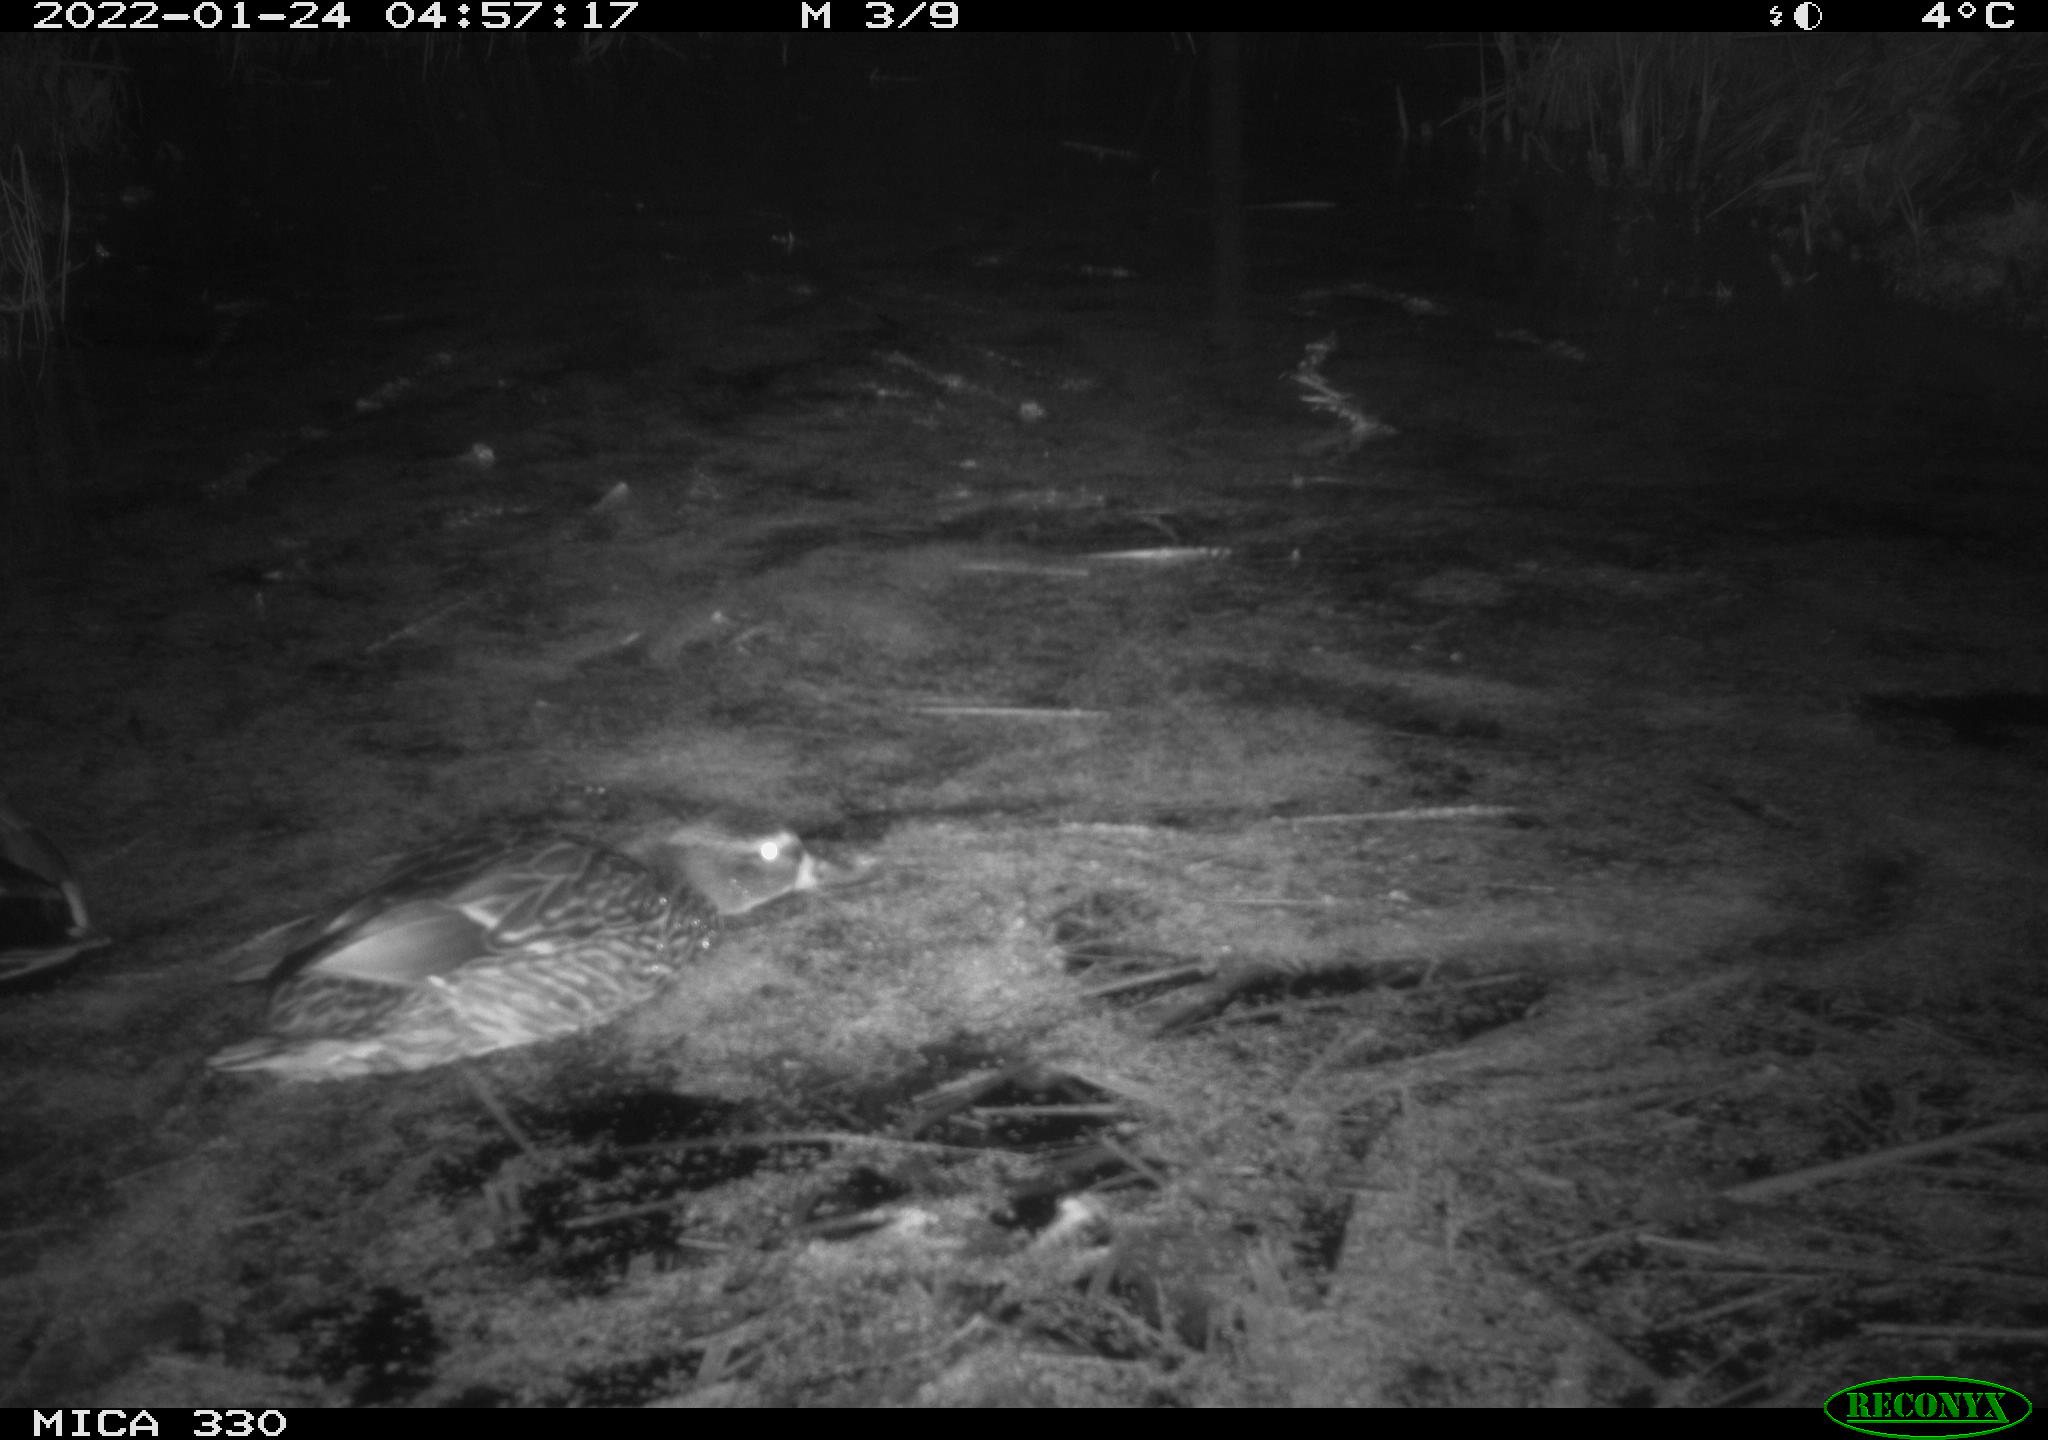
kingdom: Animalia
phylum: Chordata
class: Aves
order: Anseriformes
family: Anatidae
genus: Anas
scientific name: Anas platyrhynchos
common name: Mallard
